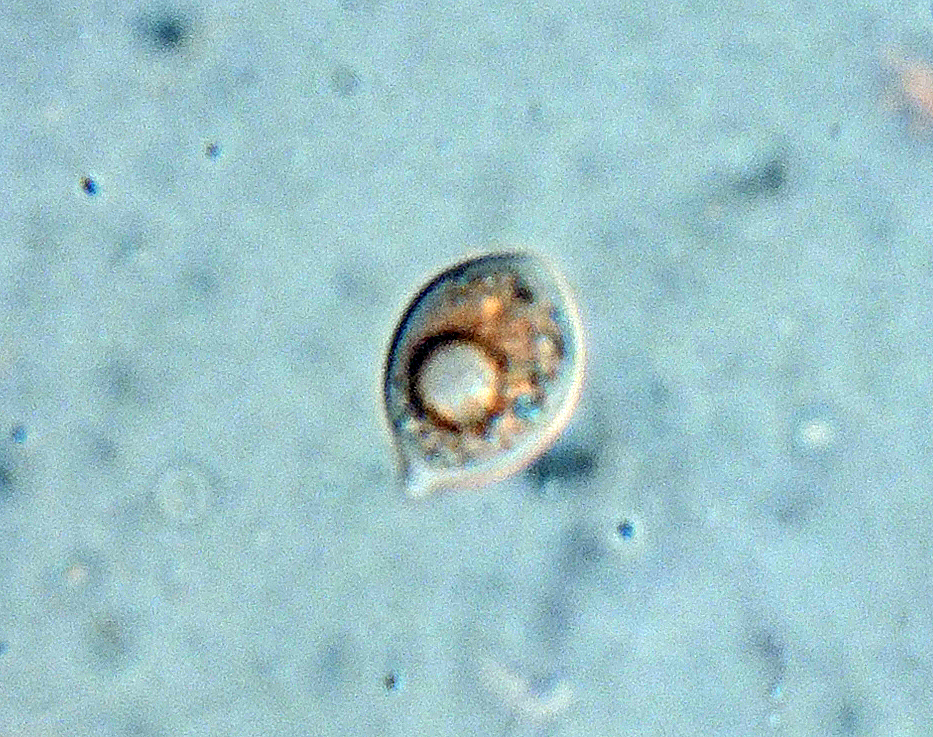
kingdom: Fungi
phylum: Basidiomycota
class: Agaricomycetes
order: Agaricales
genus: Dendrothele
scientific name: Dendrothele citrisporella
